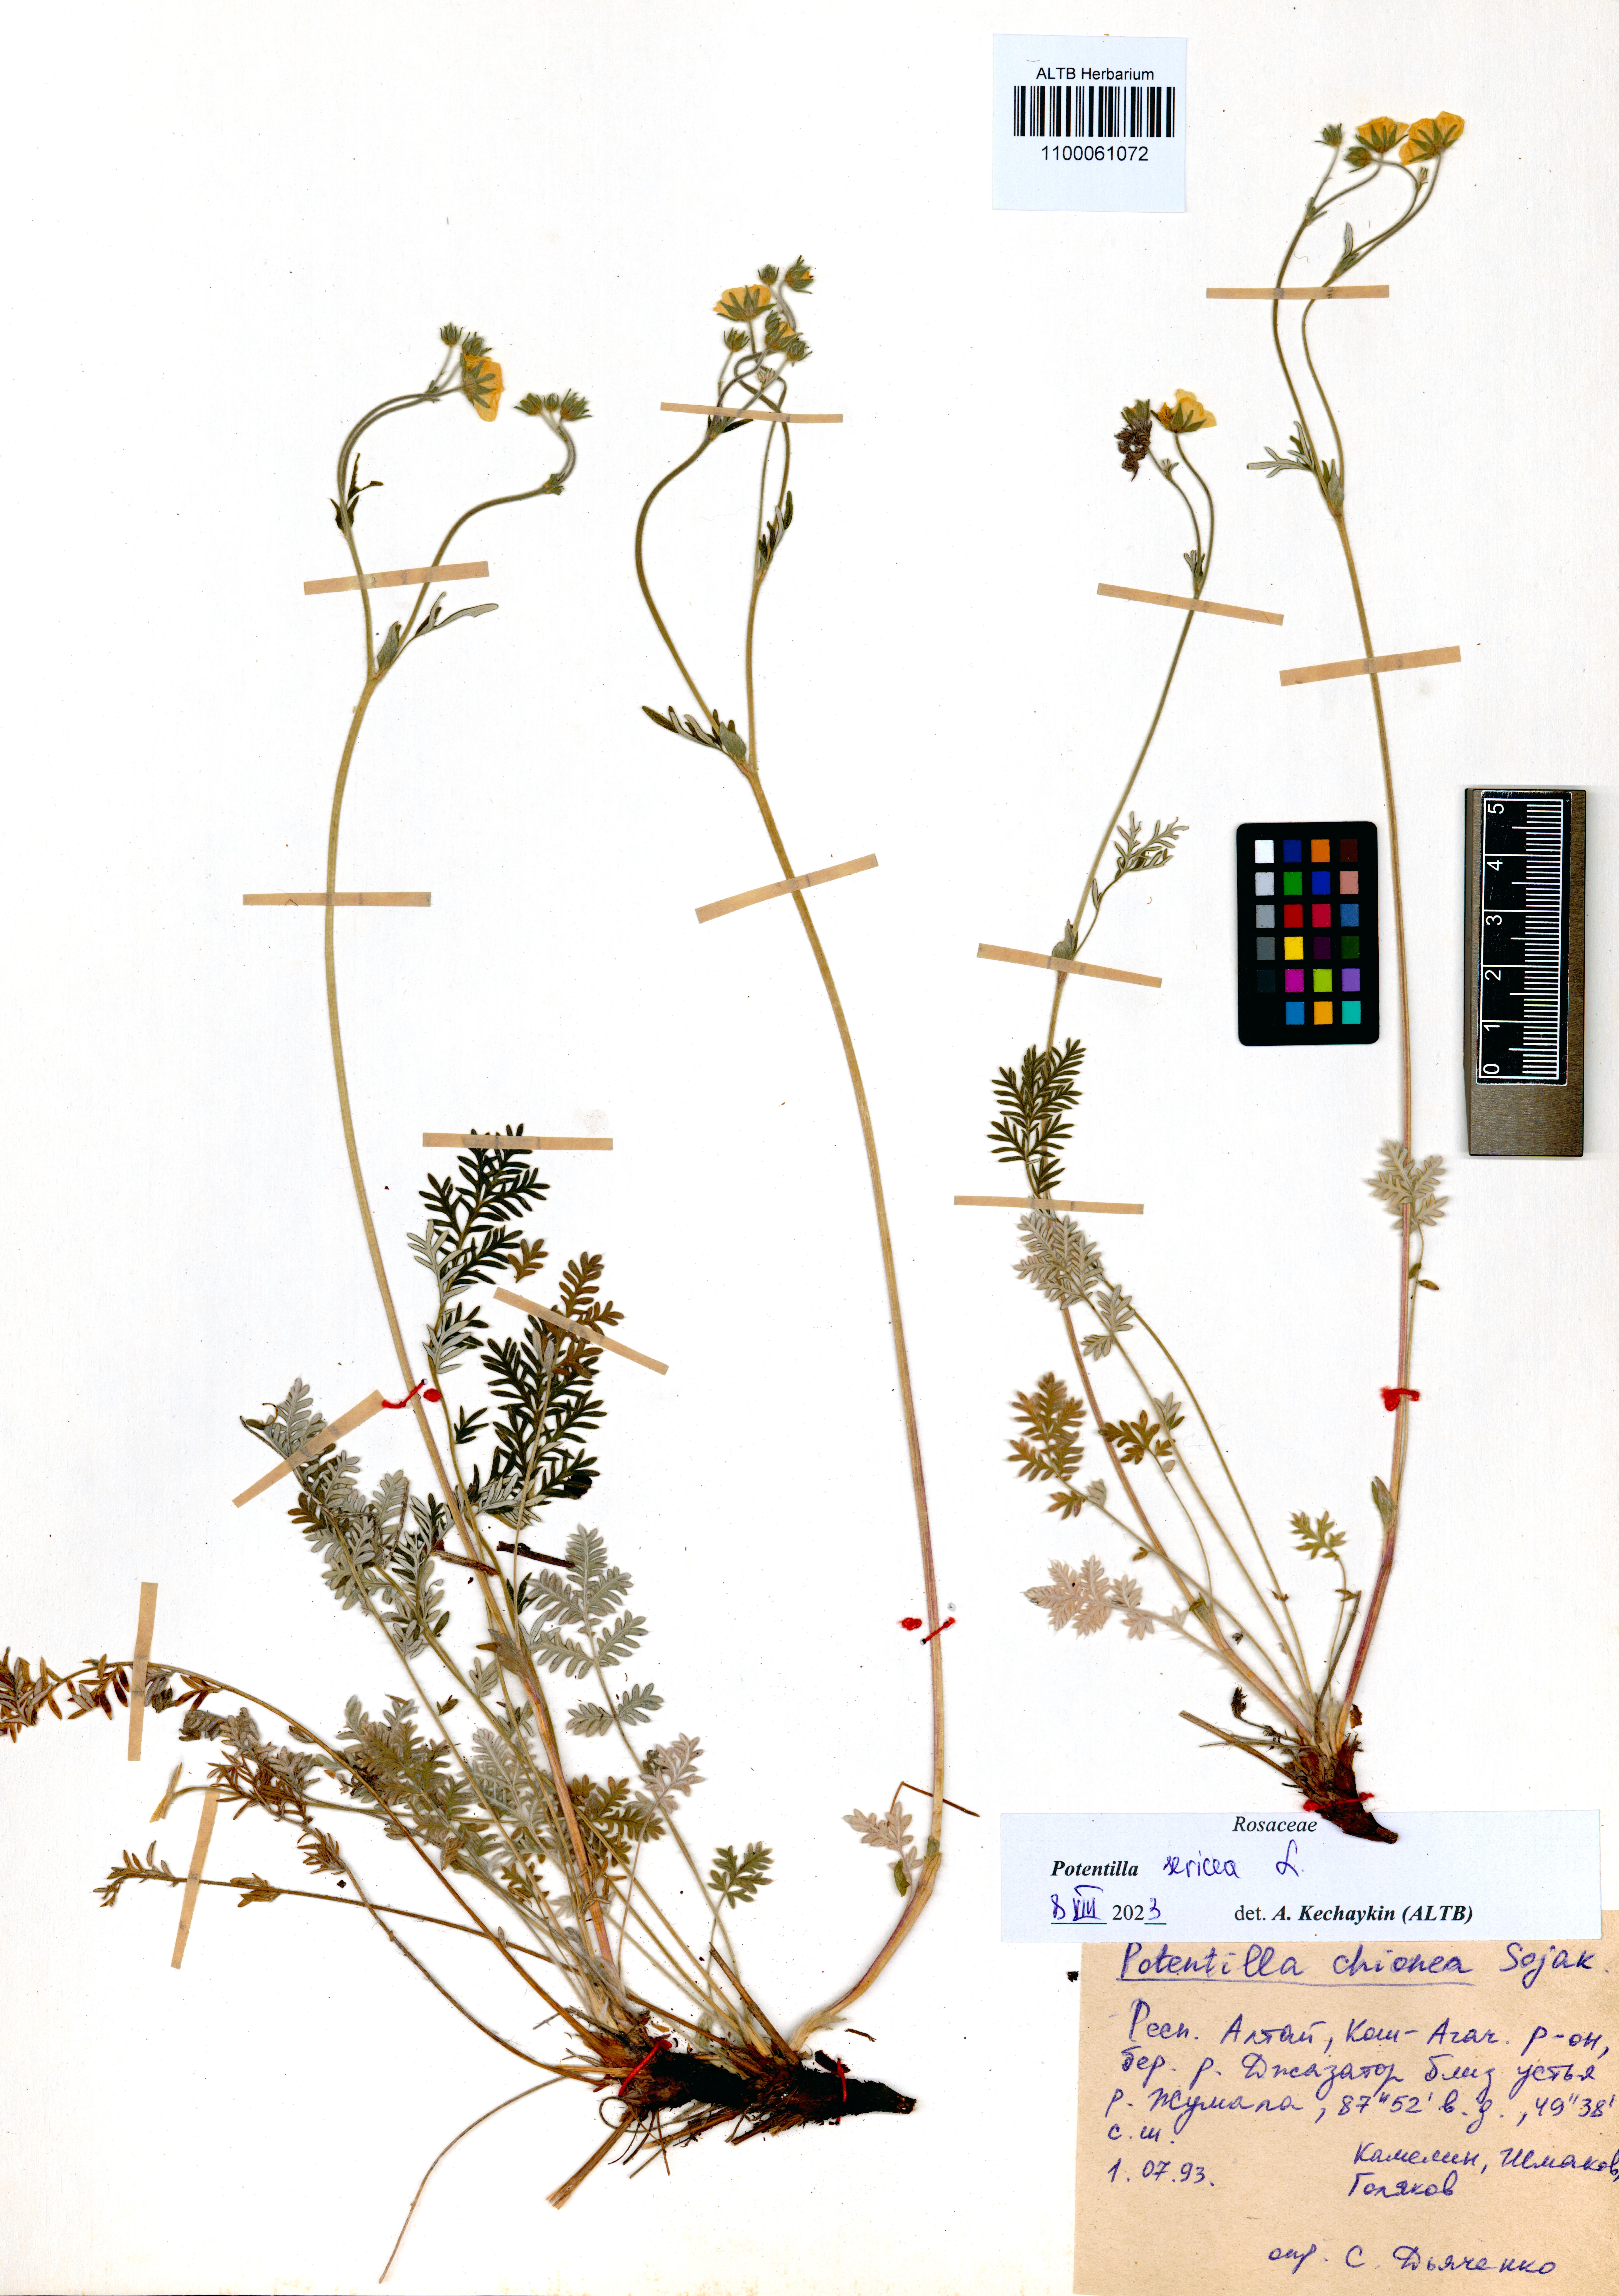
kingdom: Plantae
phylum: Tracheophyta
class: Magnoliopsida
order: Rosales
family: Rosaceae
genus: Potentilla
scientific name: Potentilla sericea
